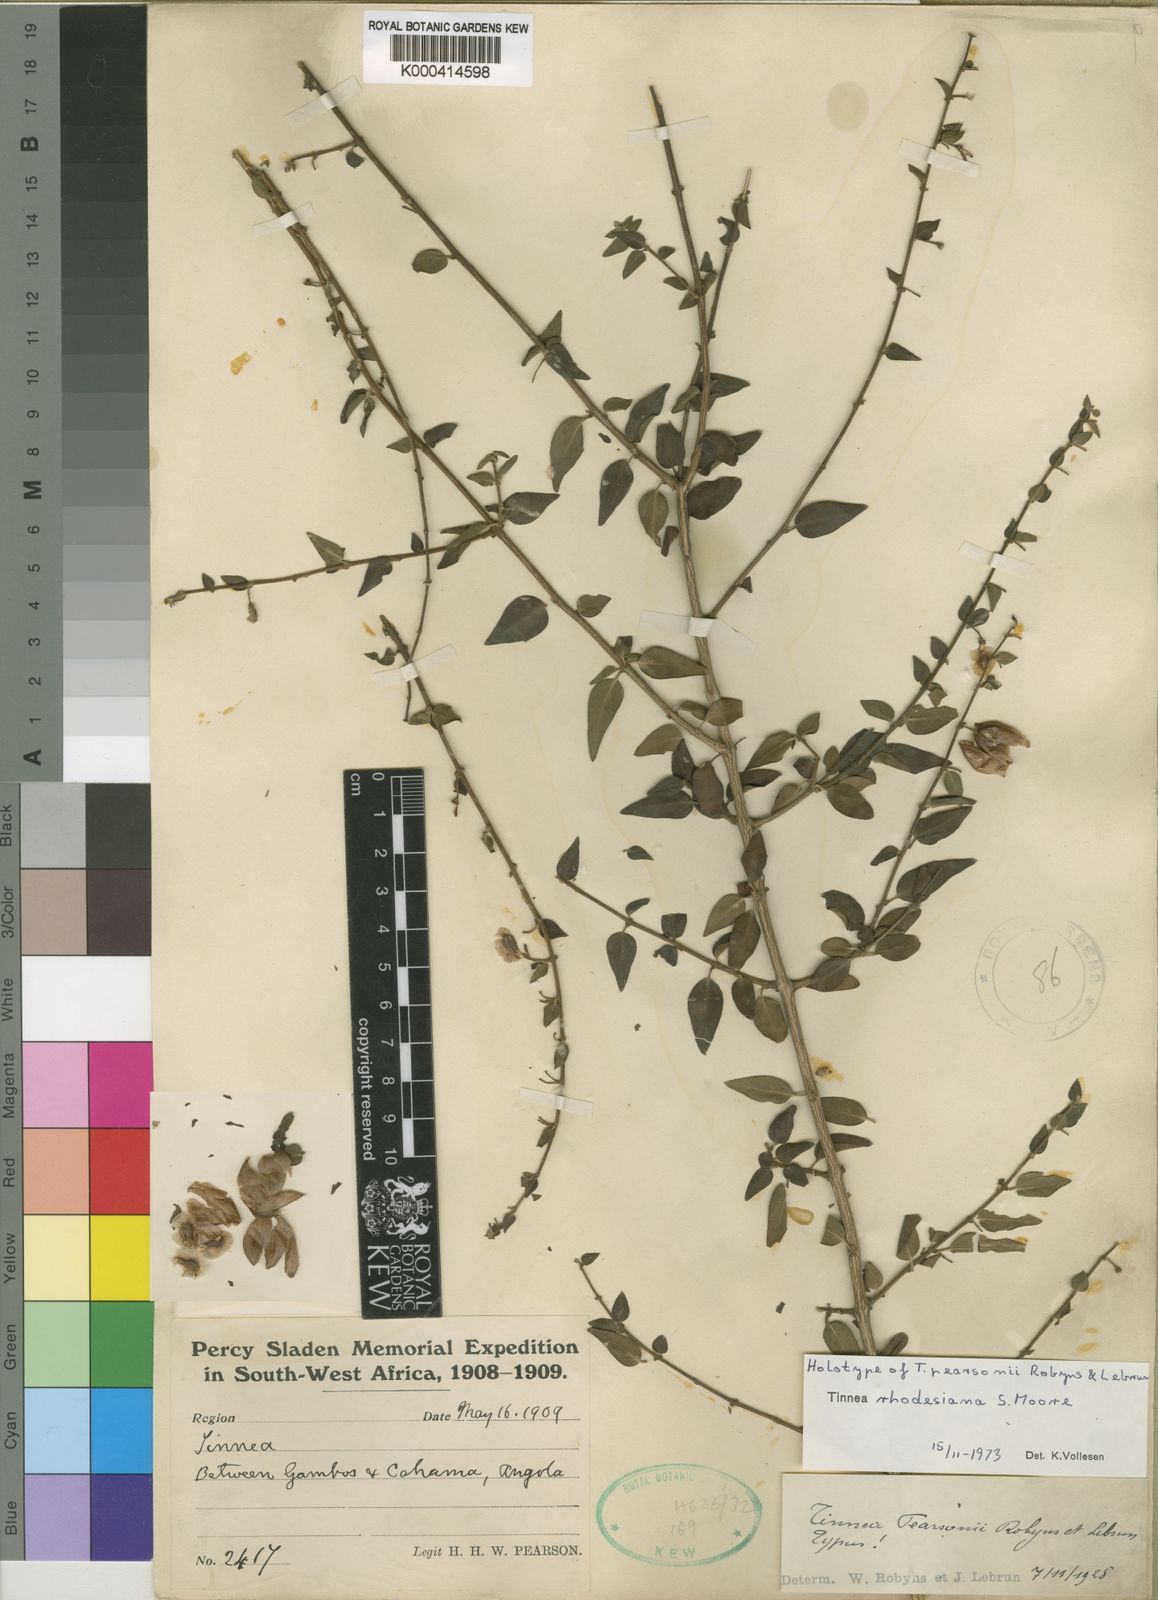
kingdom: Plantae
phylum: Tracheophyta
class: Magnoliopsida
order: Lamiales
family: Lamiaceae
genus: Tinnea
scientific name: Tinnea rhodesiana
